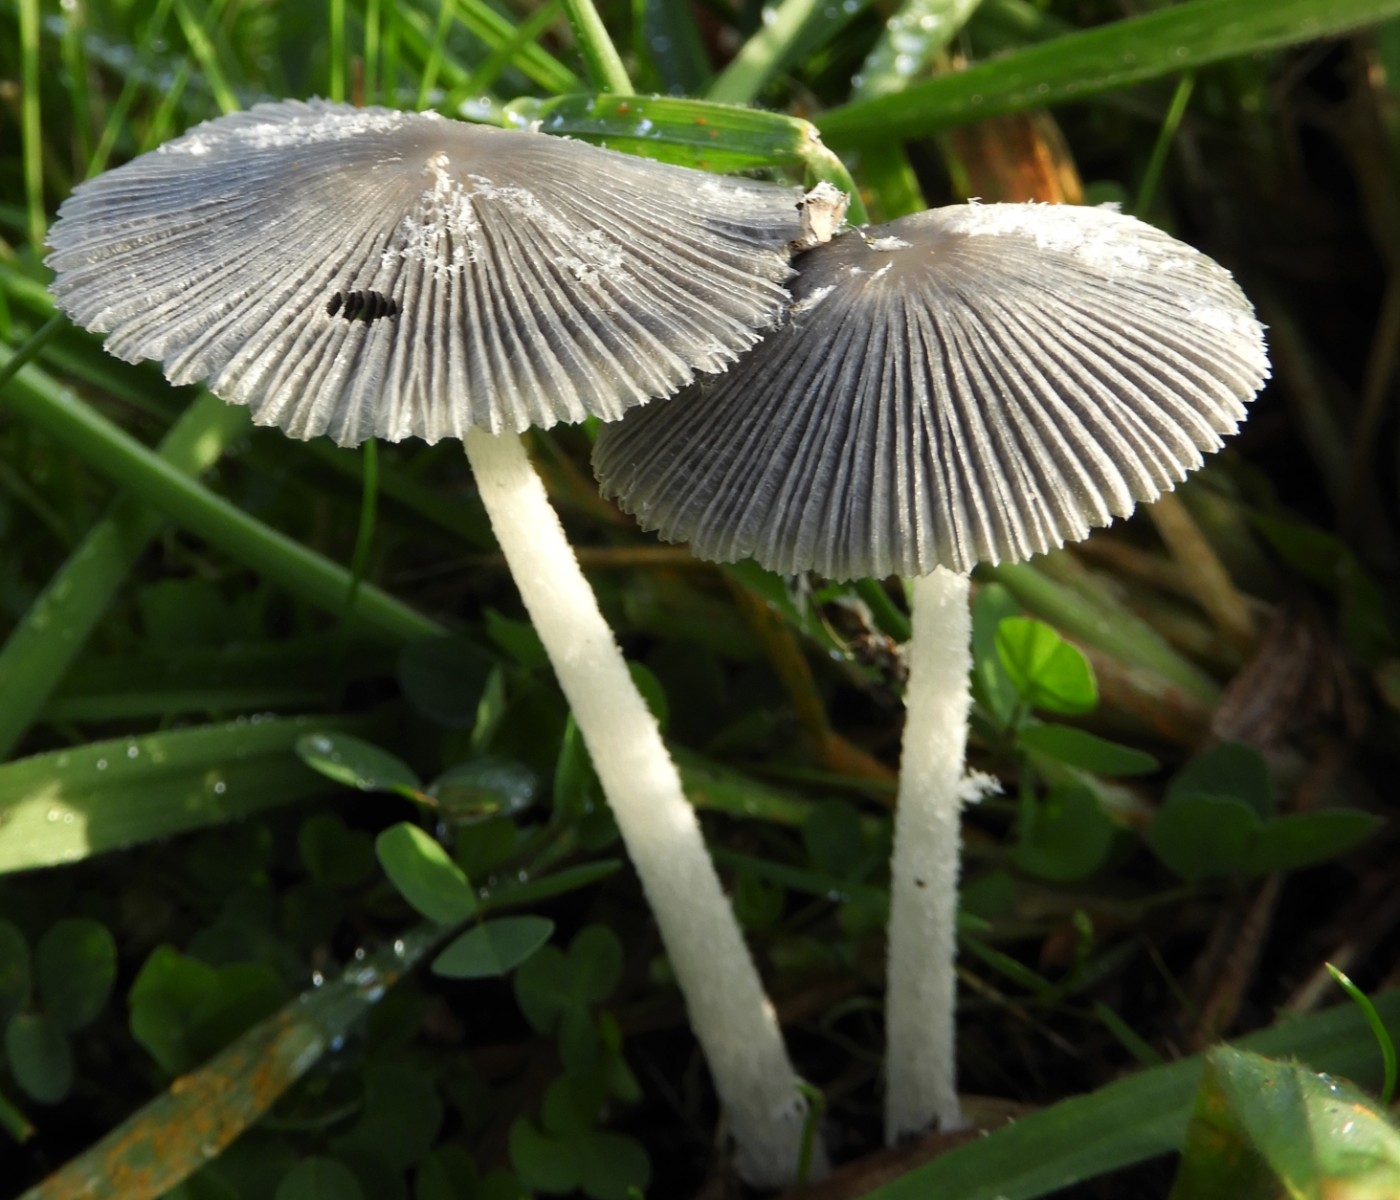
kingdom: Fungi
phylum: Basidiomycota
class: Agaricomycetes
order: Agaricales
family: Psathyrellaceae
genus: Coprinopsis
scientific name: Coprinopsis lagopus
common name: dunstokket blækhat
